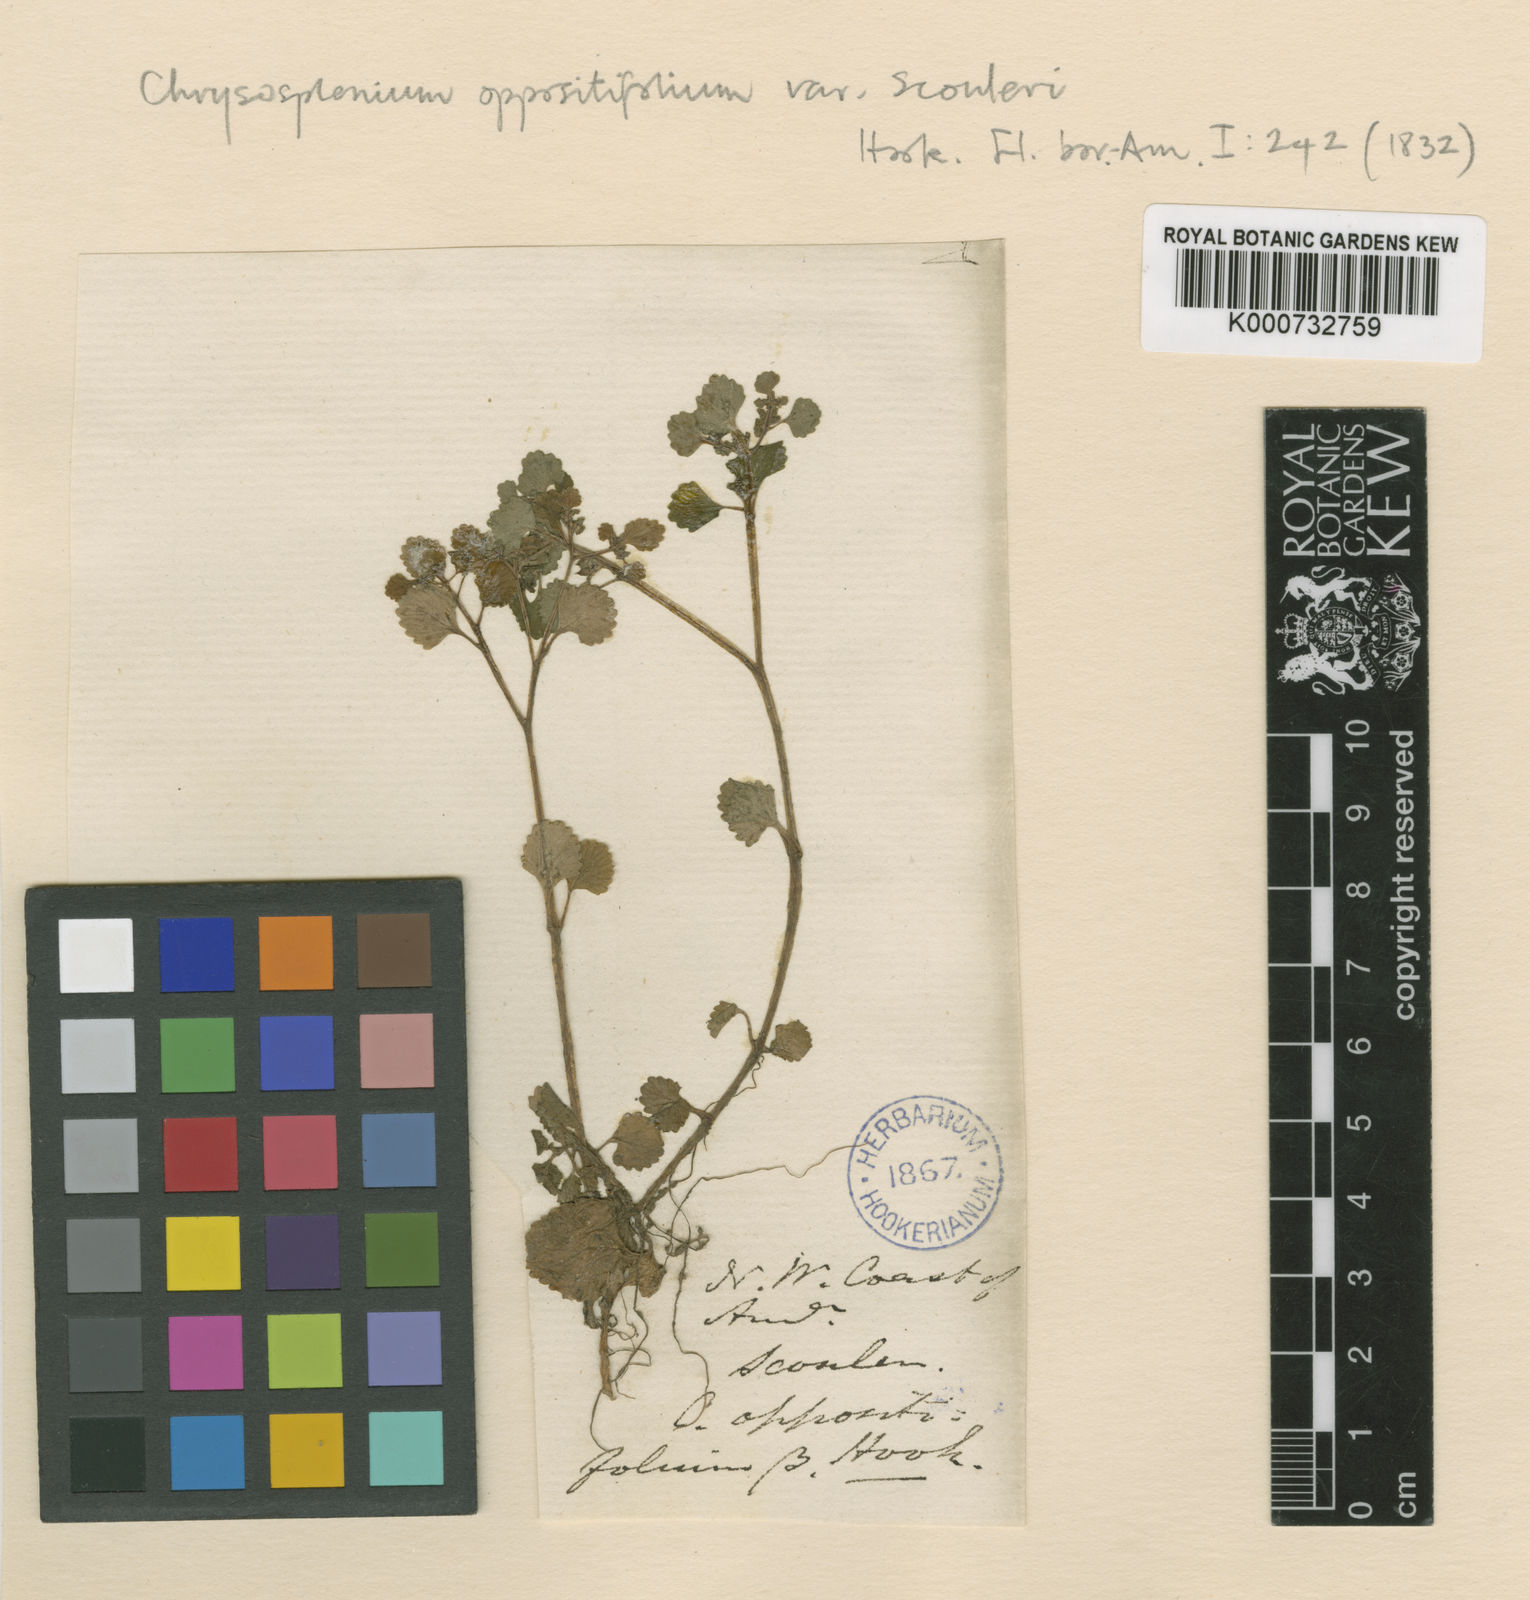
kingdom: Plantae
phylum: Tracheophyta
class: Magnoliopsida
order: Saxifragales
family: Saxifragaceae
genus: Chrysosplenium
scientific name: Chrysosplenium glechomifolium
